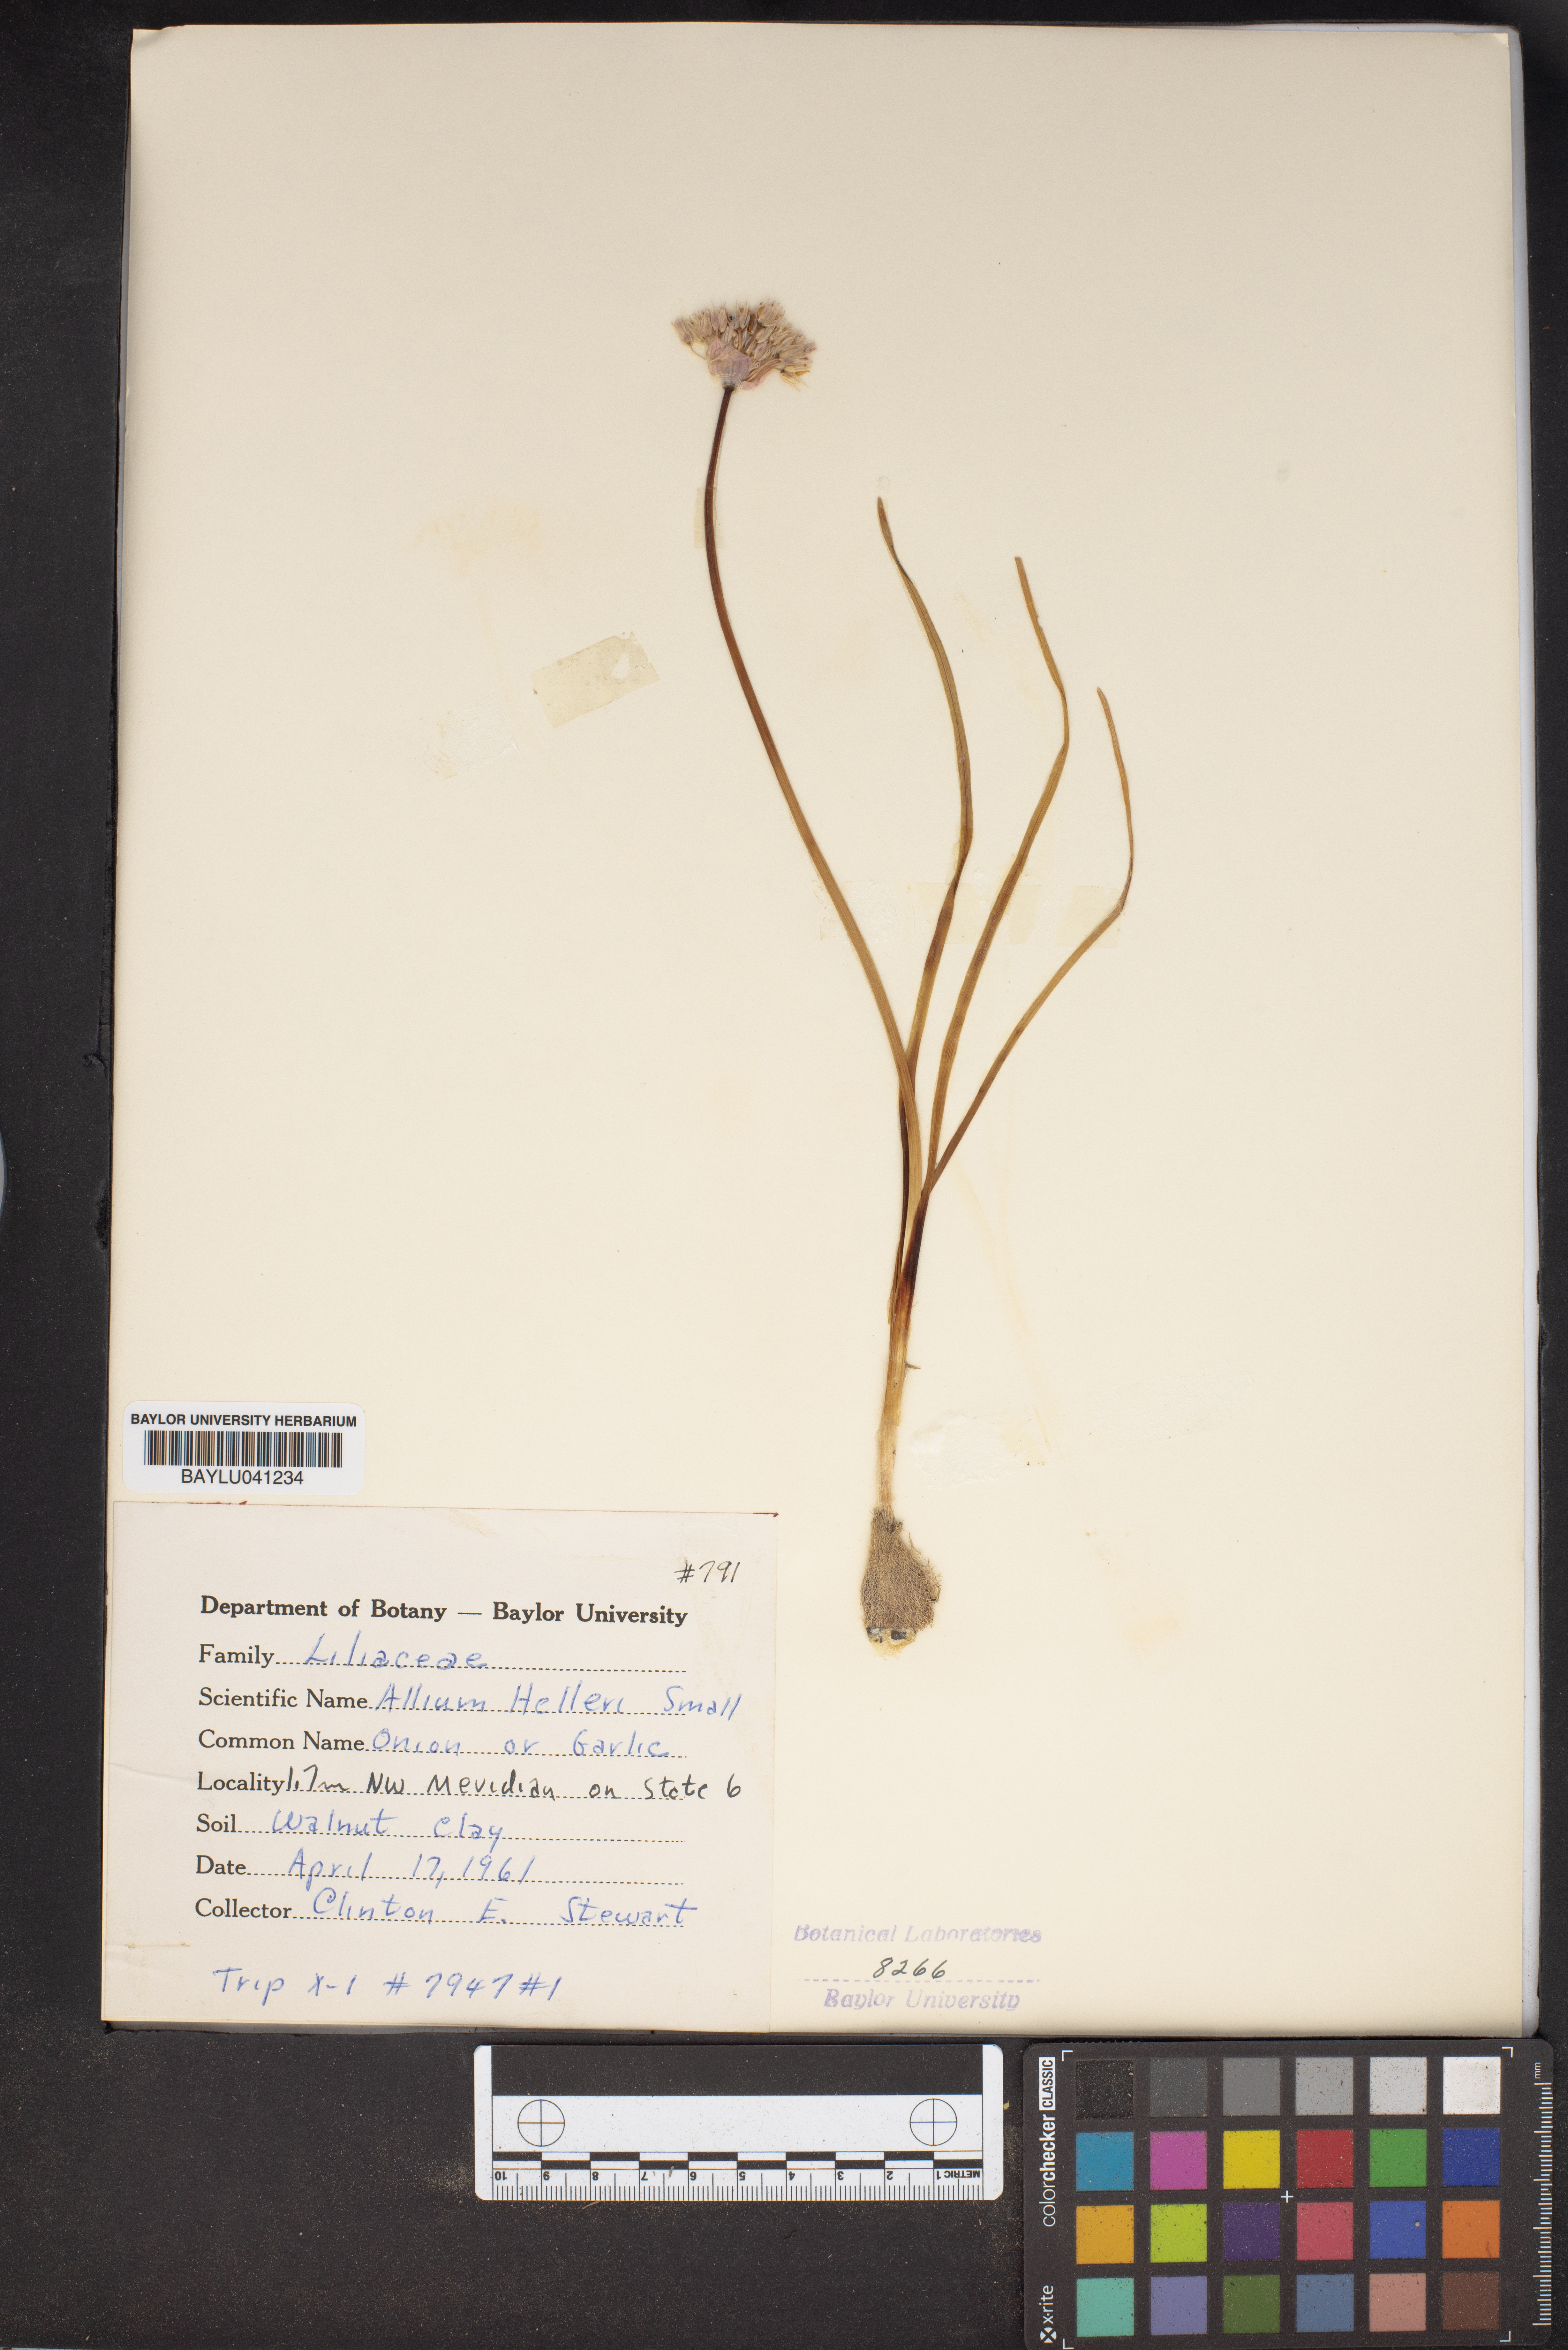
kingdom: Plantae
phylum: Tracheophyta
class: Liliopsida
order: Asparagales
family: Amaryllidaceae
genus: Allium
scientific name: Allium drummondii
